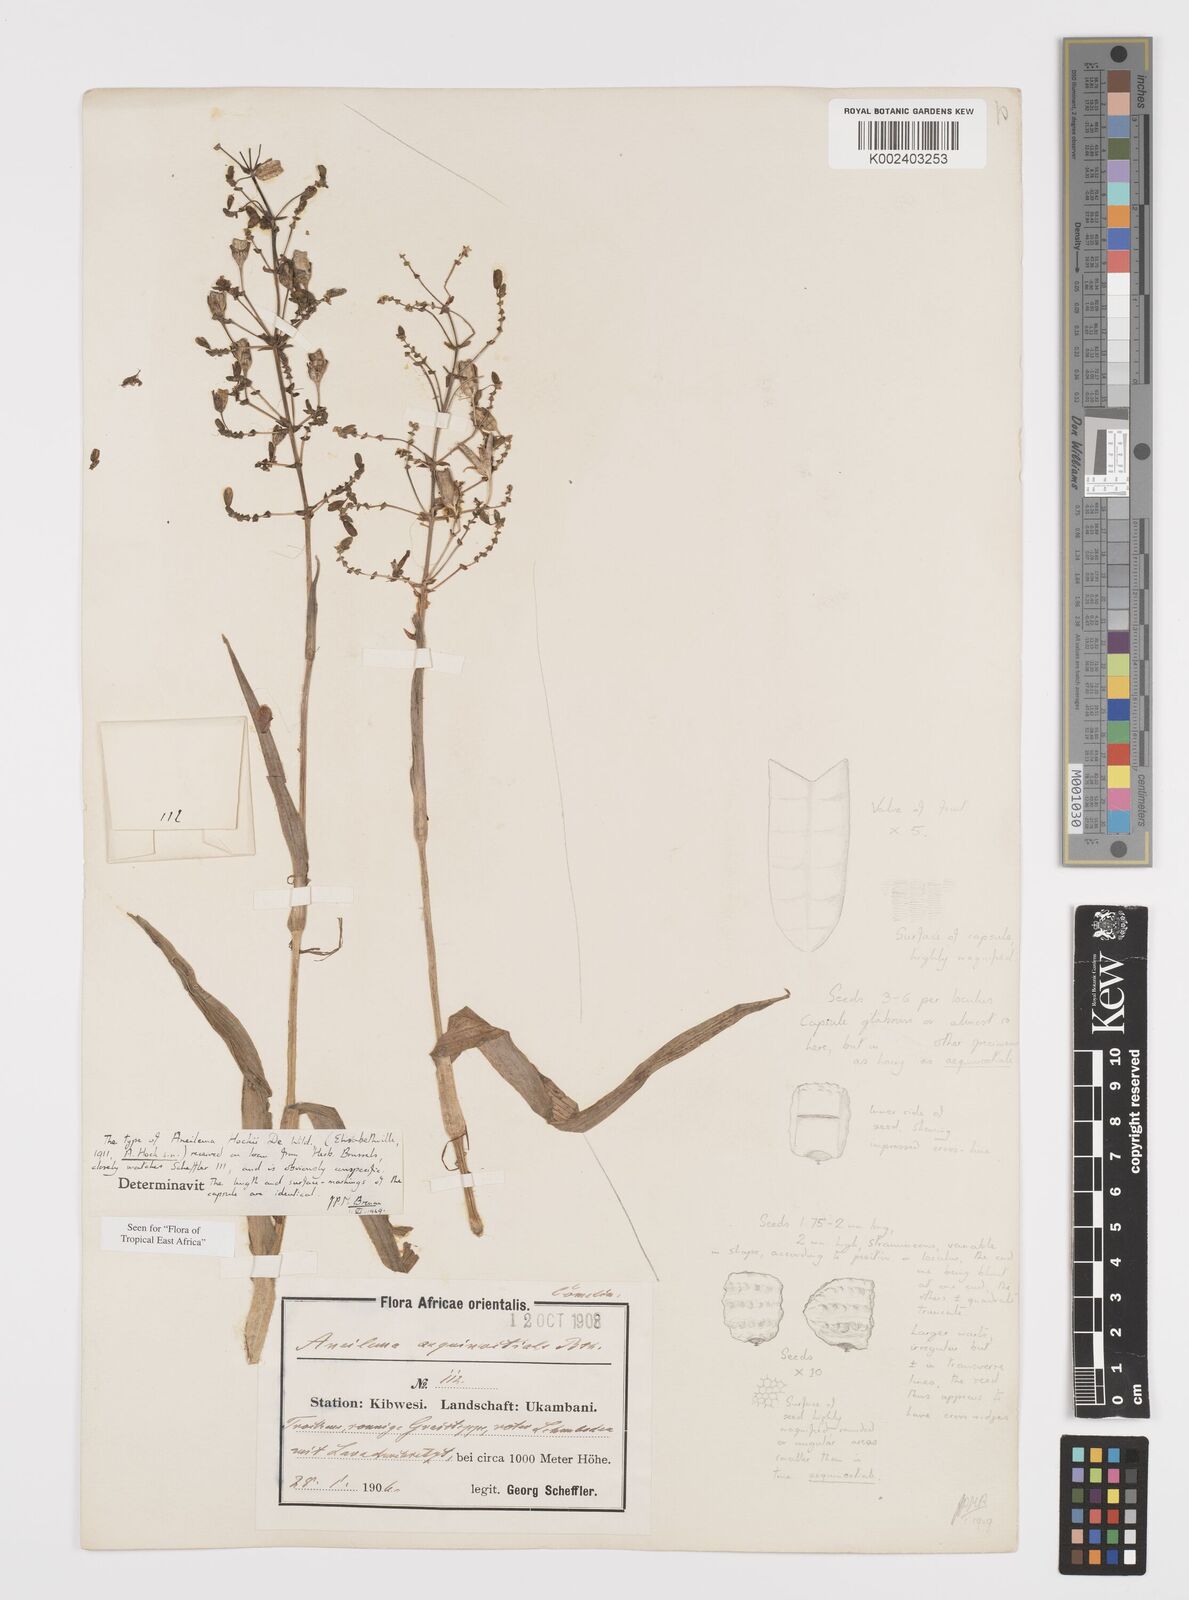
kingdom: Plantae
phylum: Tracheophyta
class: Liliopsida
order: Commelinales
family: Commelinaceae
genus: Aneilema
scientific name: Aneilema hockii
